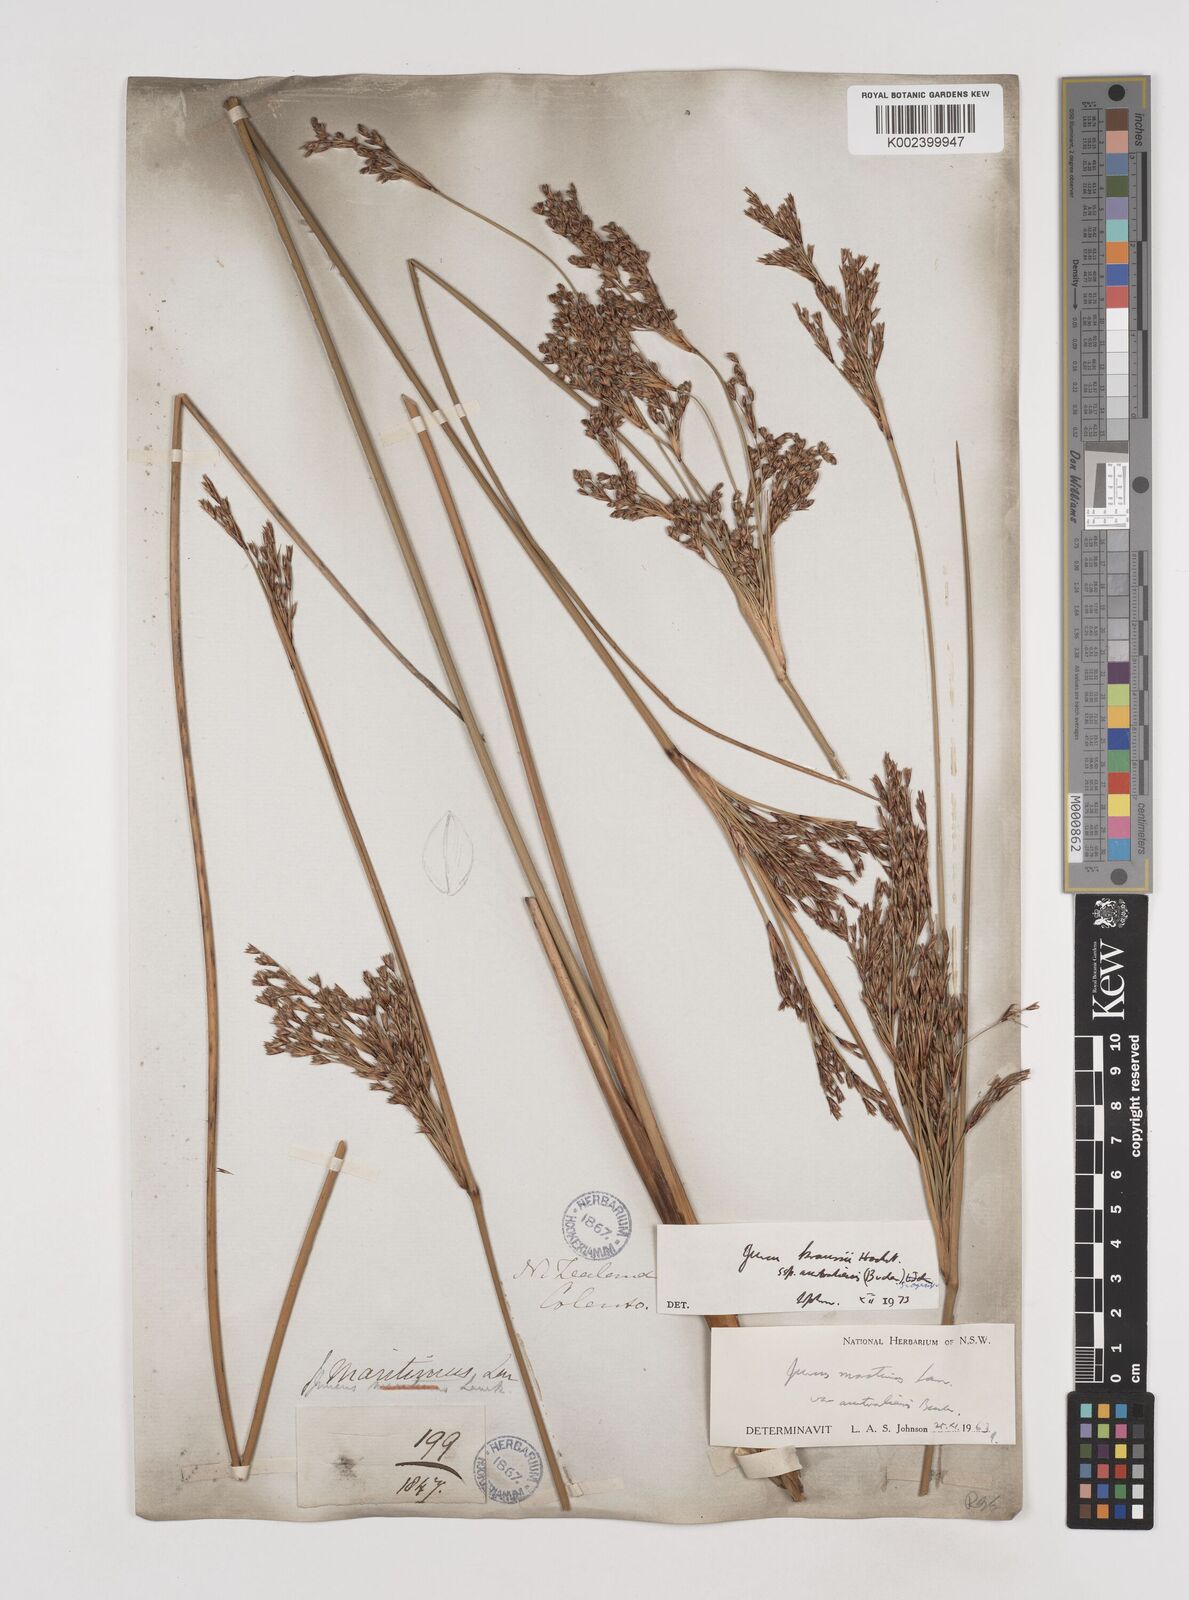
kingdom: Plantae
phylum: Tracheophyta
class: Liliopsida
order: Poales
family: Juncaceae
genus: Juncus
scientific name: Juncus kraussii
